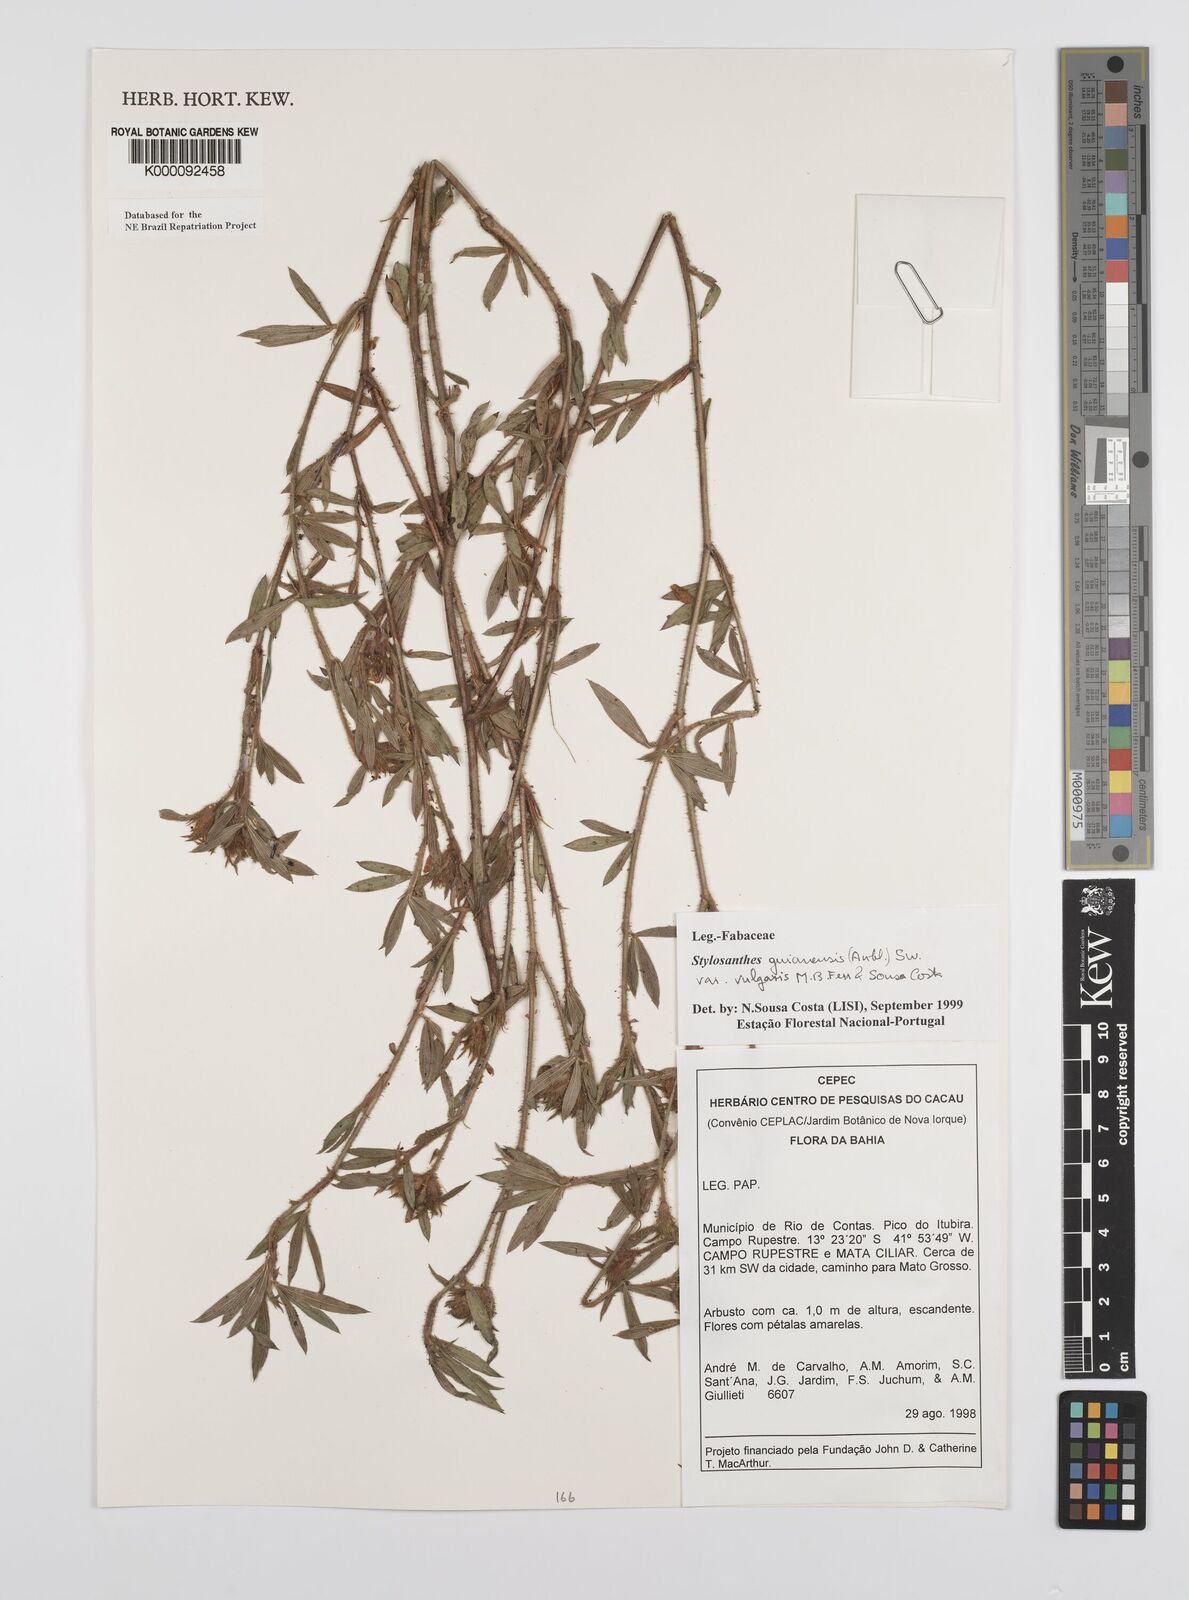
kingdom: Plantae
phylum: Tracheophyta
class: Magnoliopsida
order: Fabales
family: Fabaceae
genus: Stylosanthes
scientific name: Stylosanthes guianensis
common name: Pencil flower
